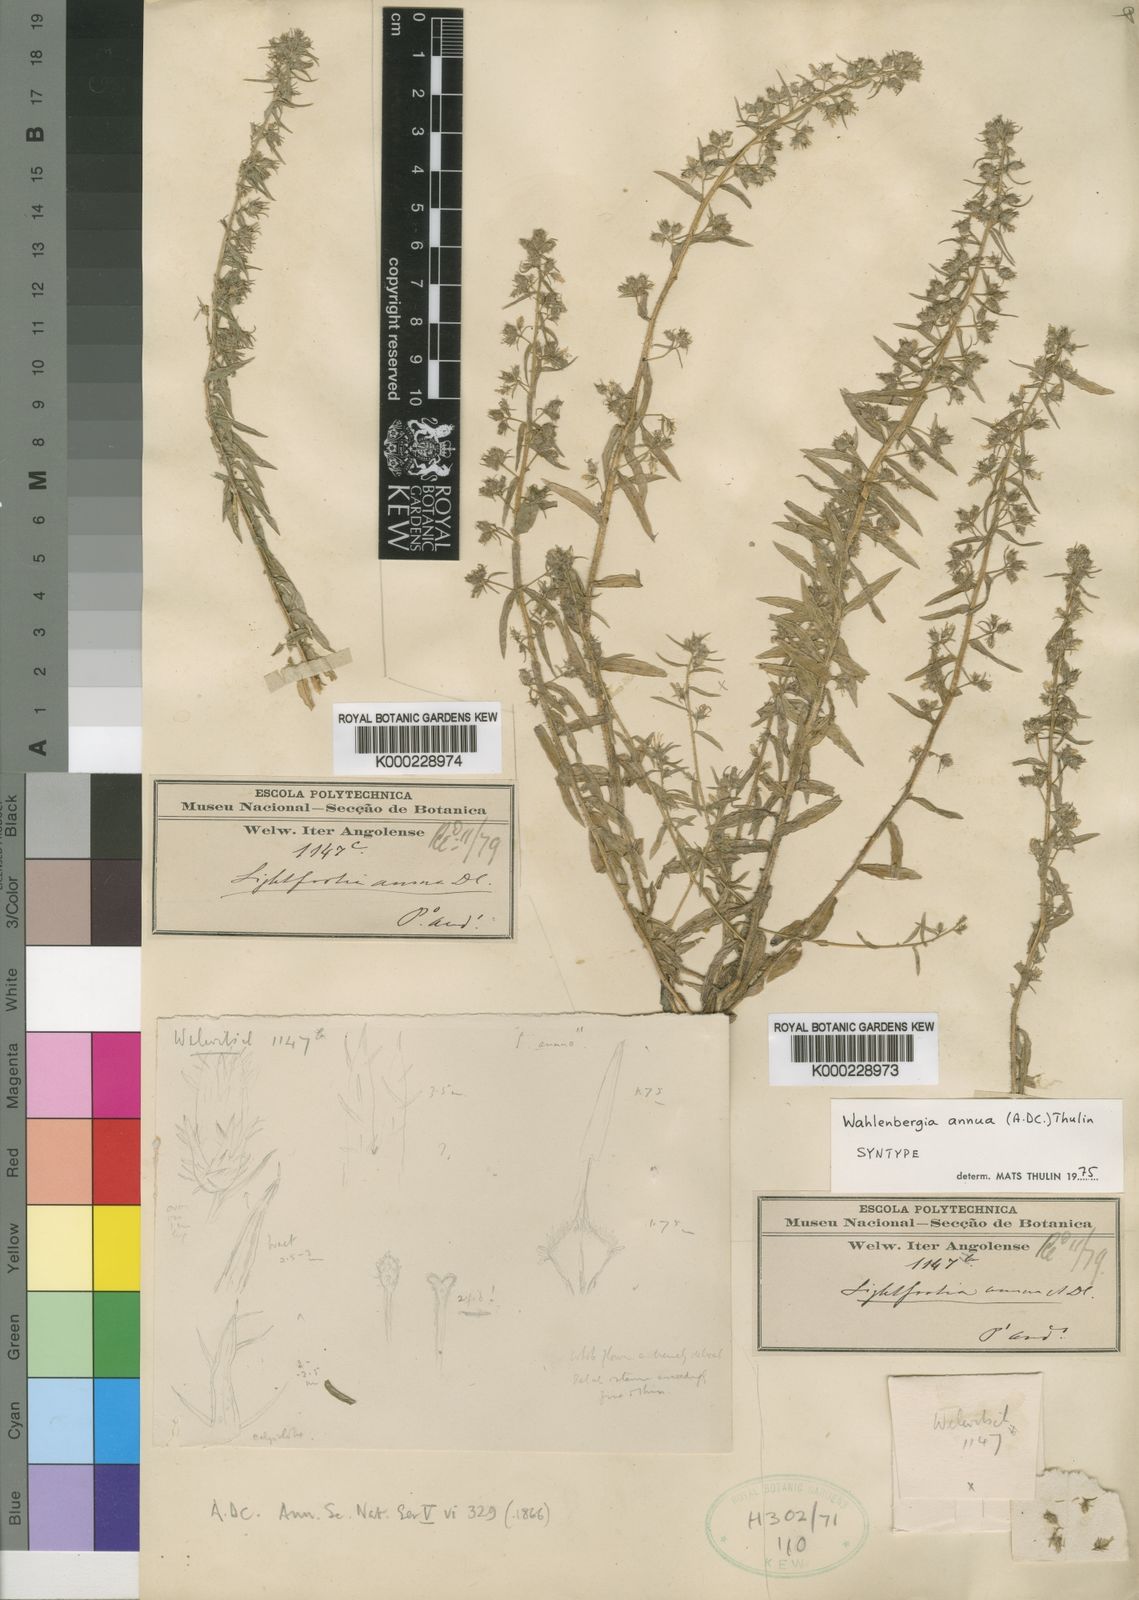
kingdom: Plantae
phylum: Tracheophyta
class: Magnoliopsida
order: Asterales
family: Campanulaceae
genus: Wahlenbergia
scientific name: Wahlenbergia annua
